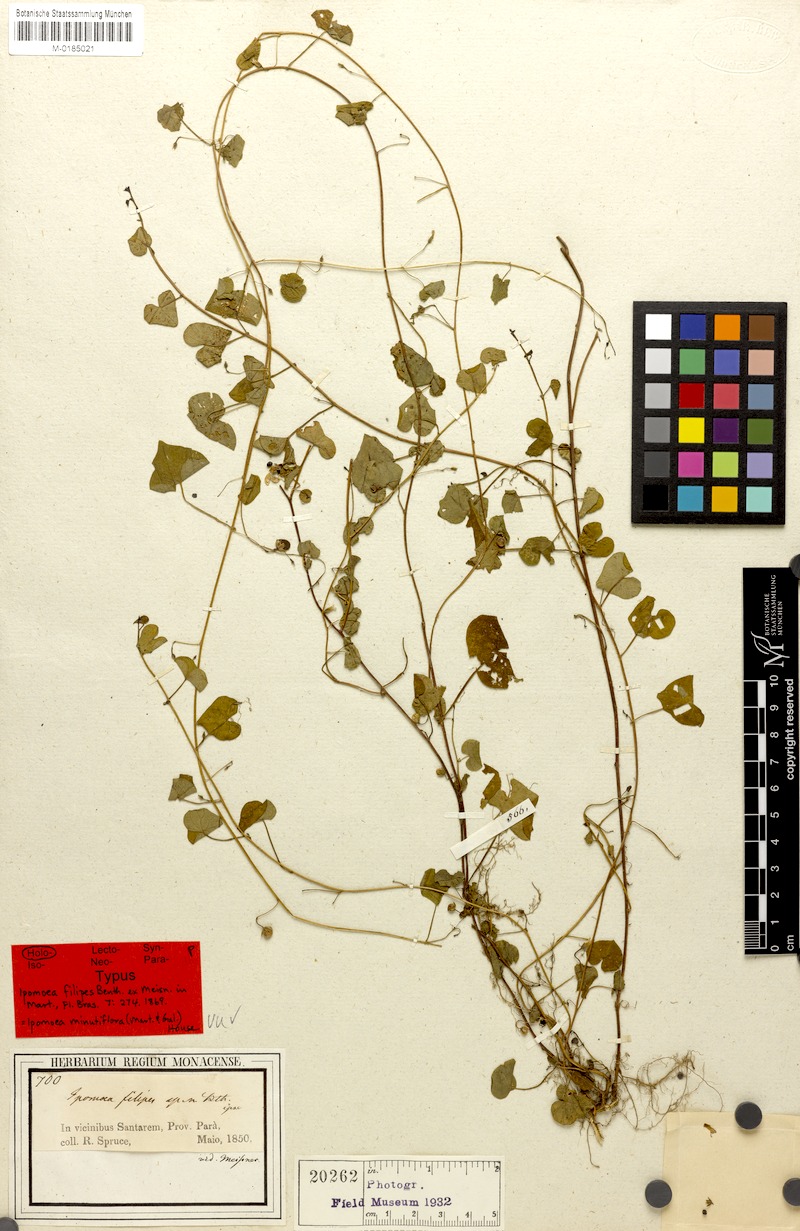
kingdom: Plantae
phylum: Tracheophyta
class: Magnoliopsida
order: Solanales
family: Convolvulaceae
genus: Ipomoea
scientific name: Ipomoea minutiflora
